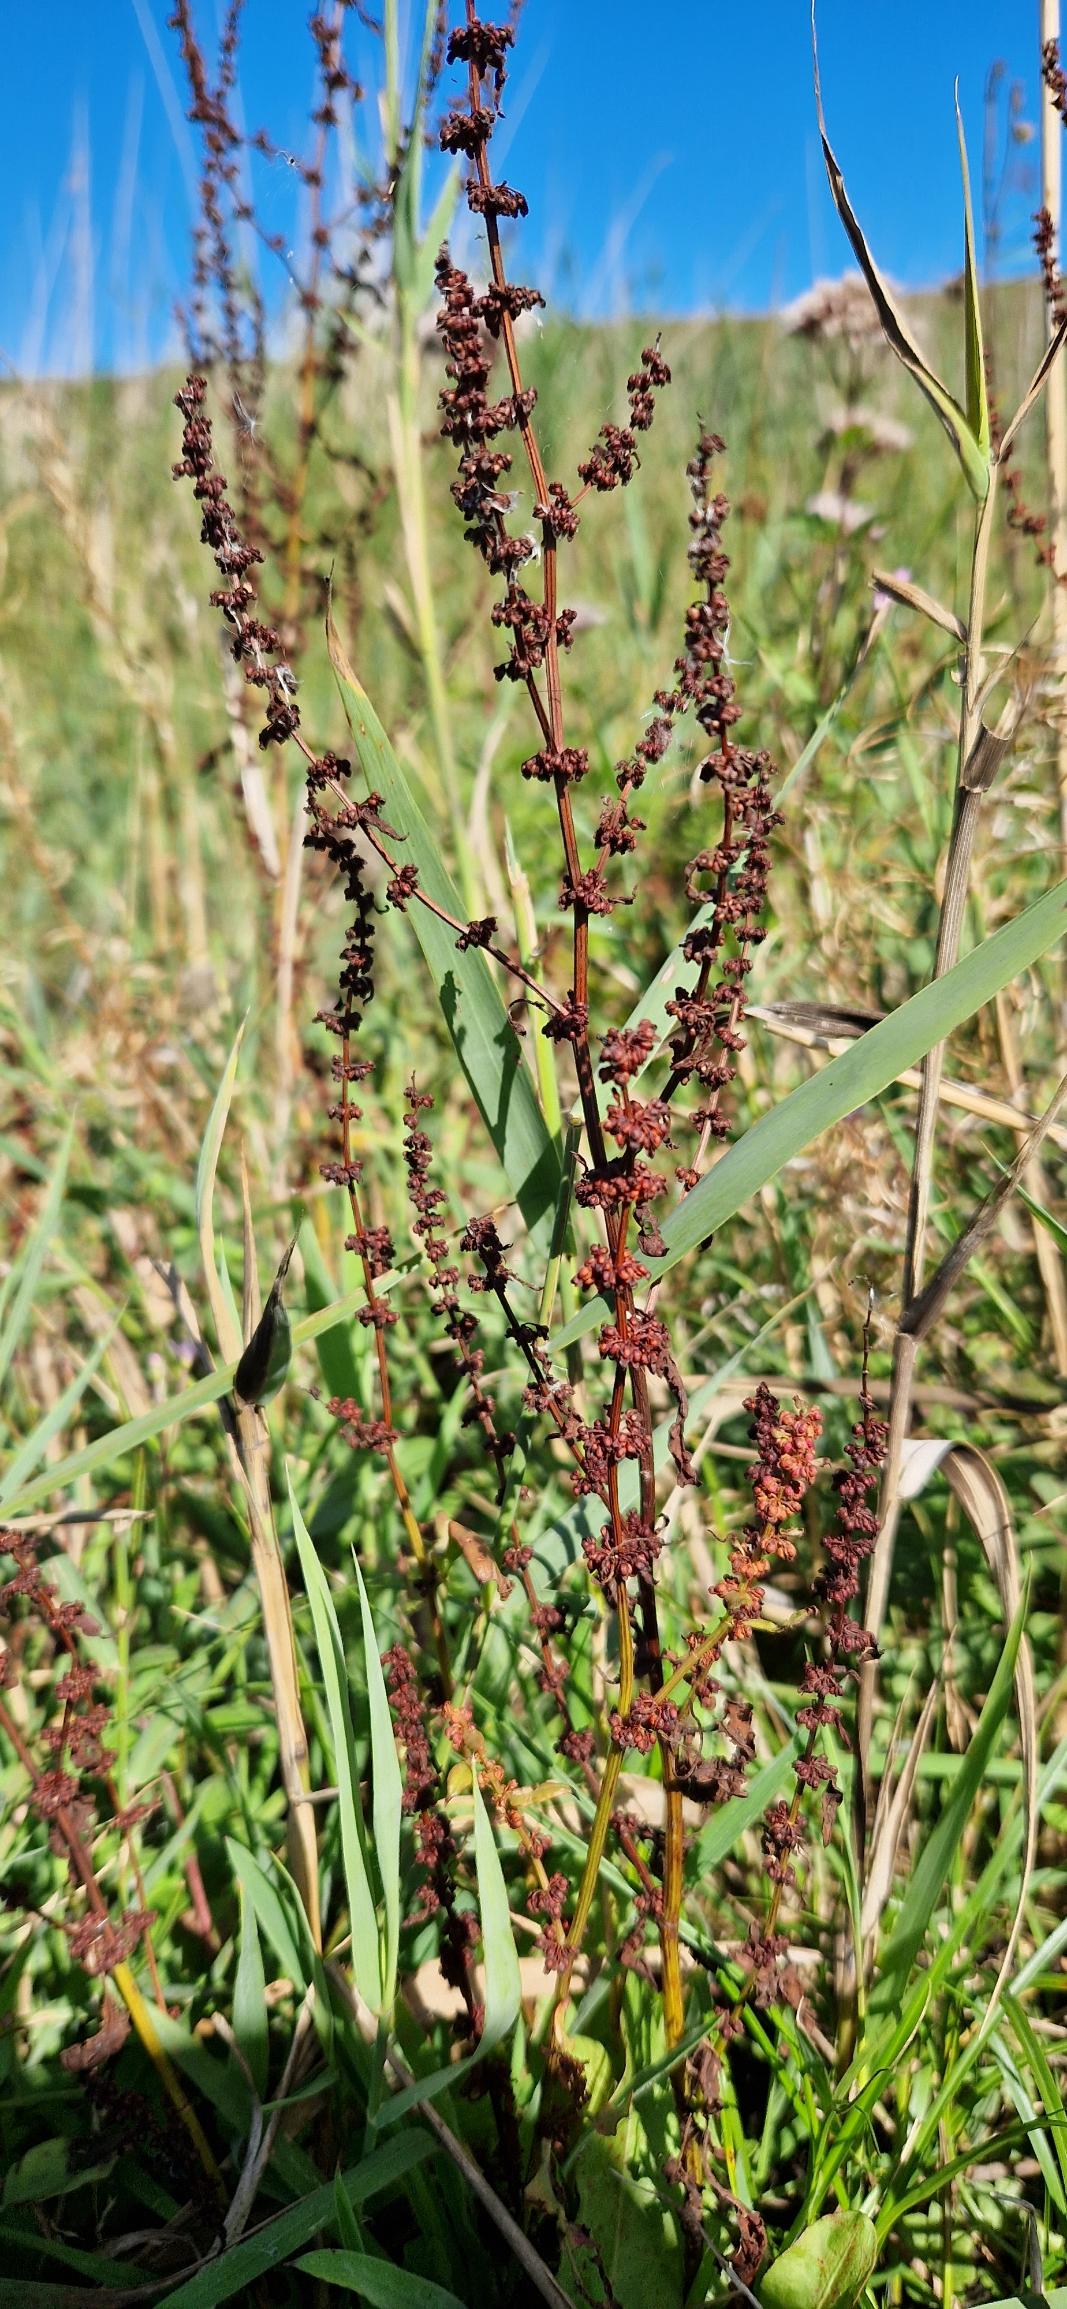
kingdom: Plantae
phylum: Tracheophyta
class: Magnoliopsida
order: Caryophyllales
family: Polygonaceae
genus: Rumex
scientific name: Rumex conglomeratus
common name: Nøgle-skræppe
